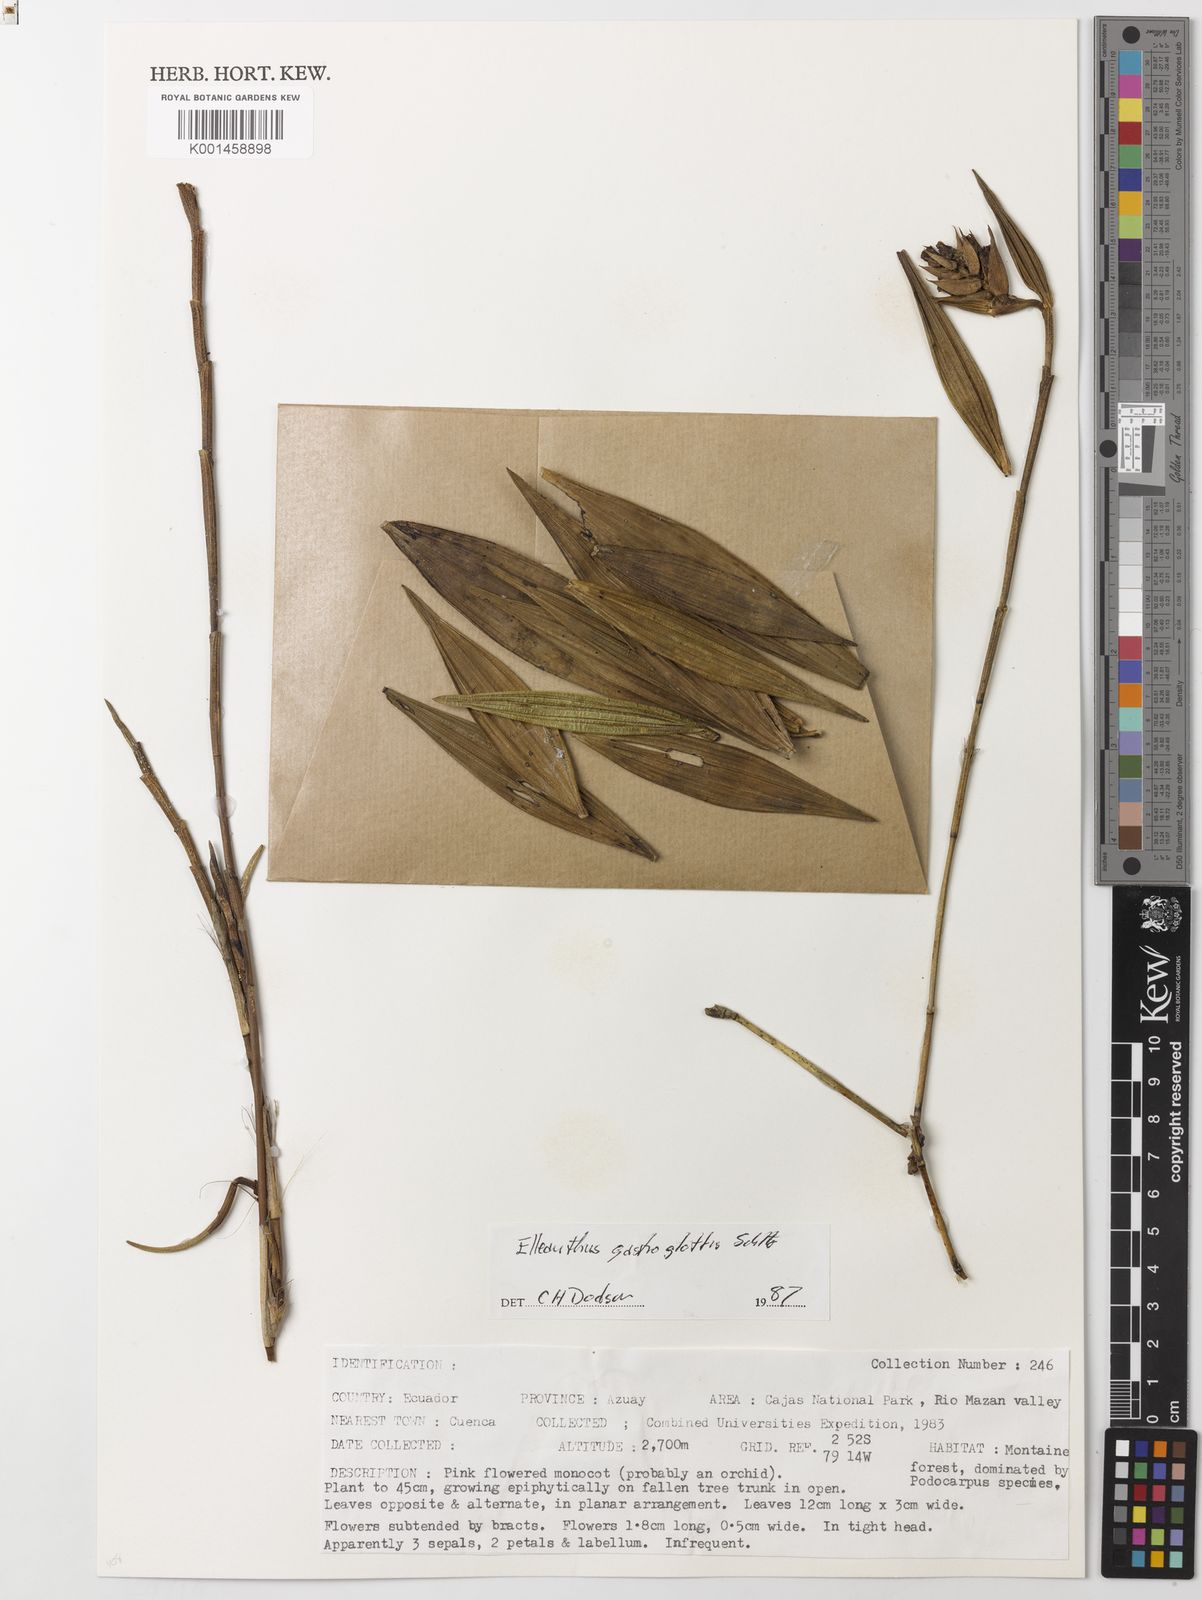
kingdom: Plantae
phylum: Tracheophyta
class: Liliopsida
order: Asparagales
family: Orchidaceae
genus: Elleanthus
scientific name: Elleanthus gastroglottis
